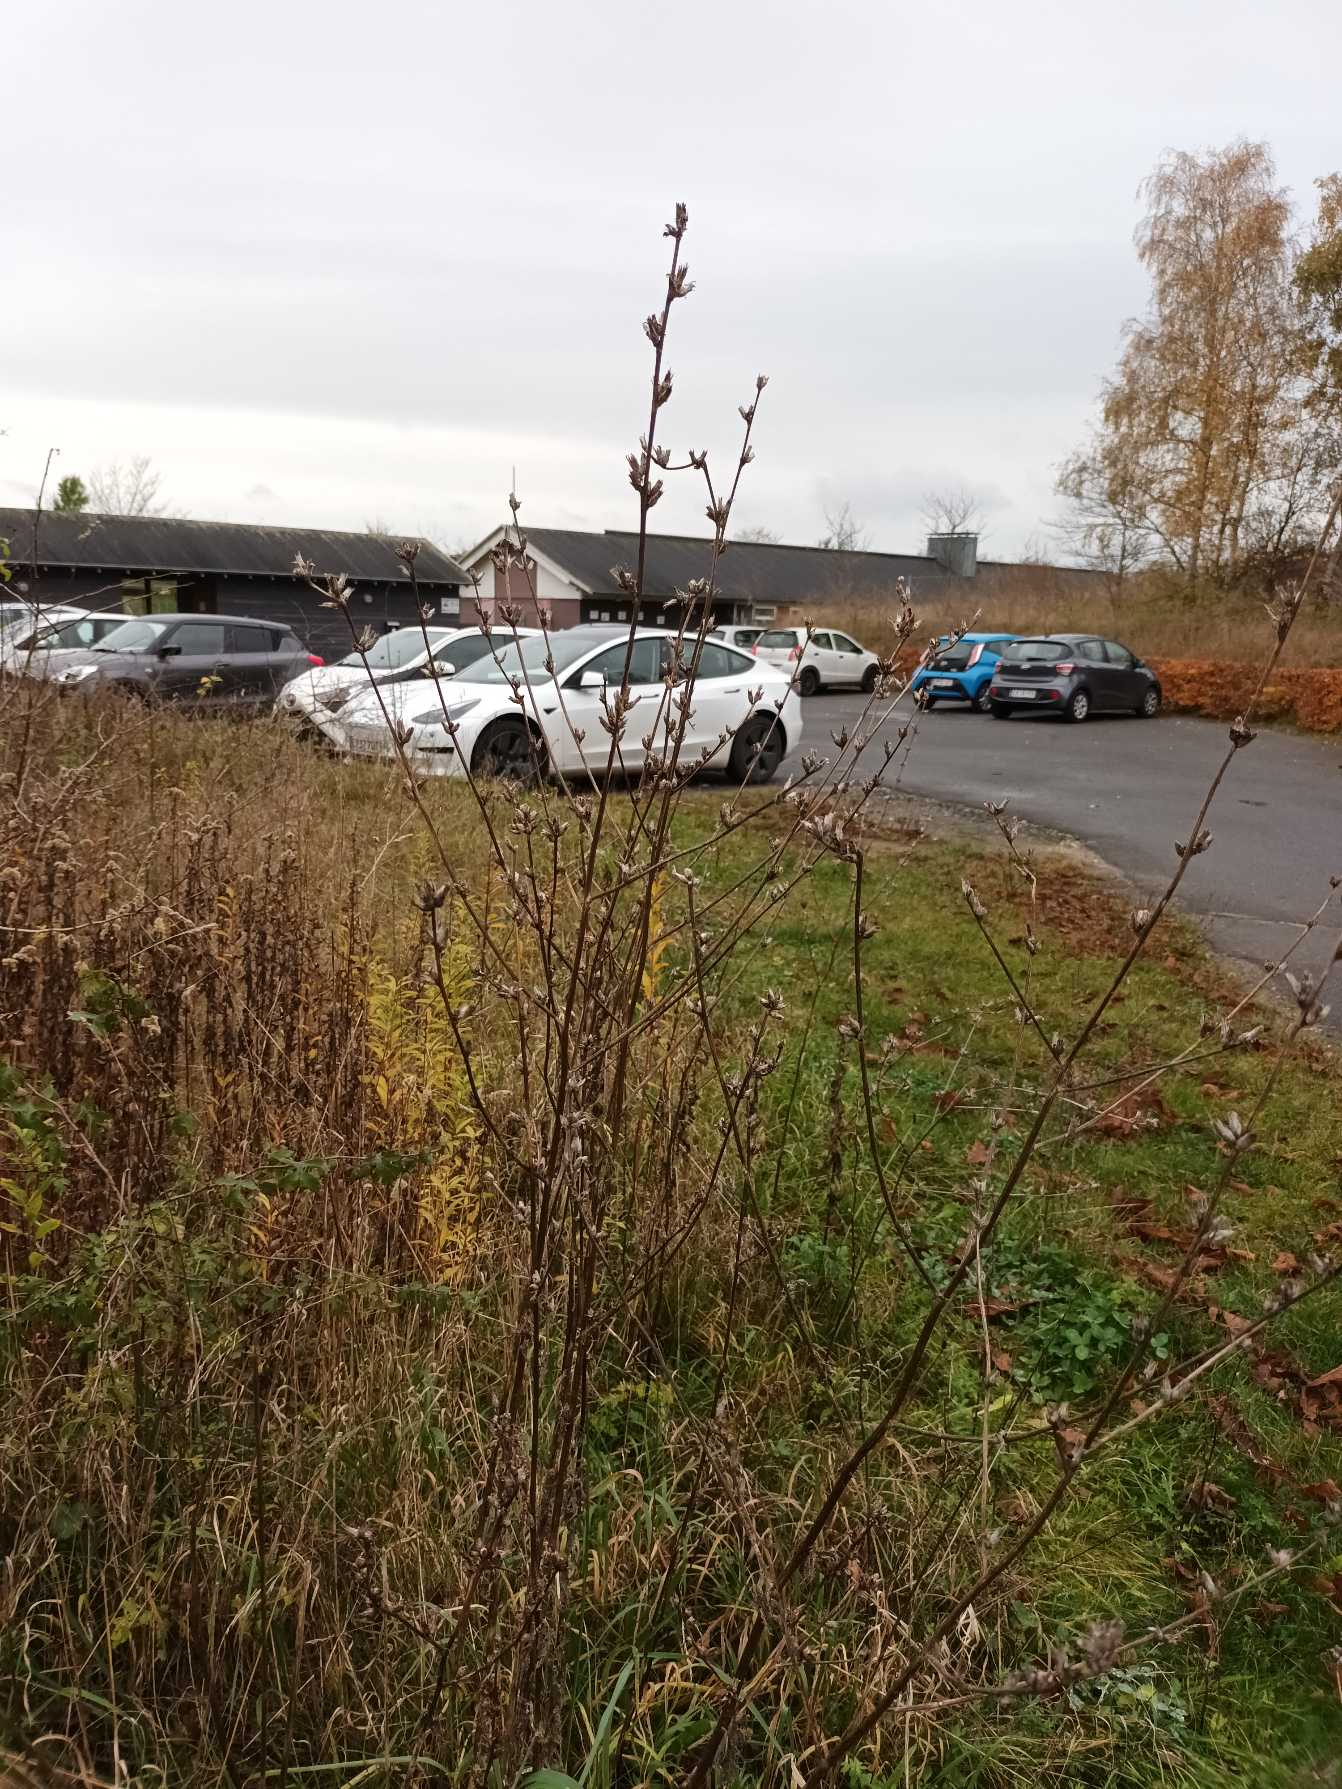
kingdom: Plantae
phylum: Tracheophyta
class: Magnoliopsida
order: Asterales
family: Asteraceae
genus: Cichorium
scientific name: Cichorium intybus
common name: Cikorie
